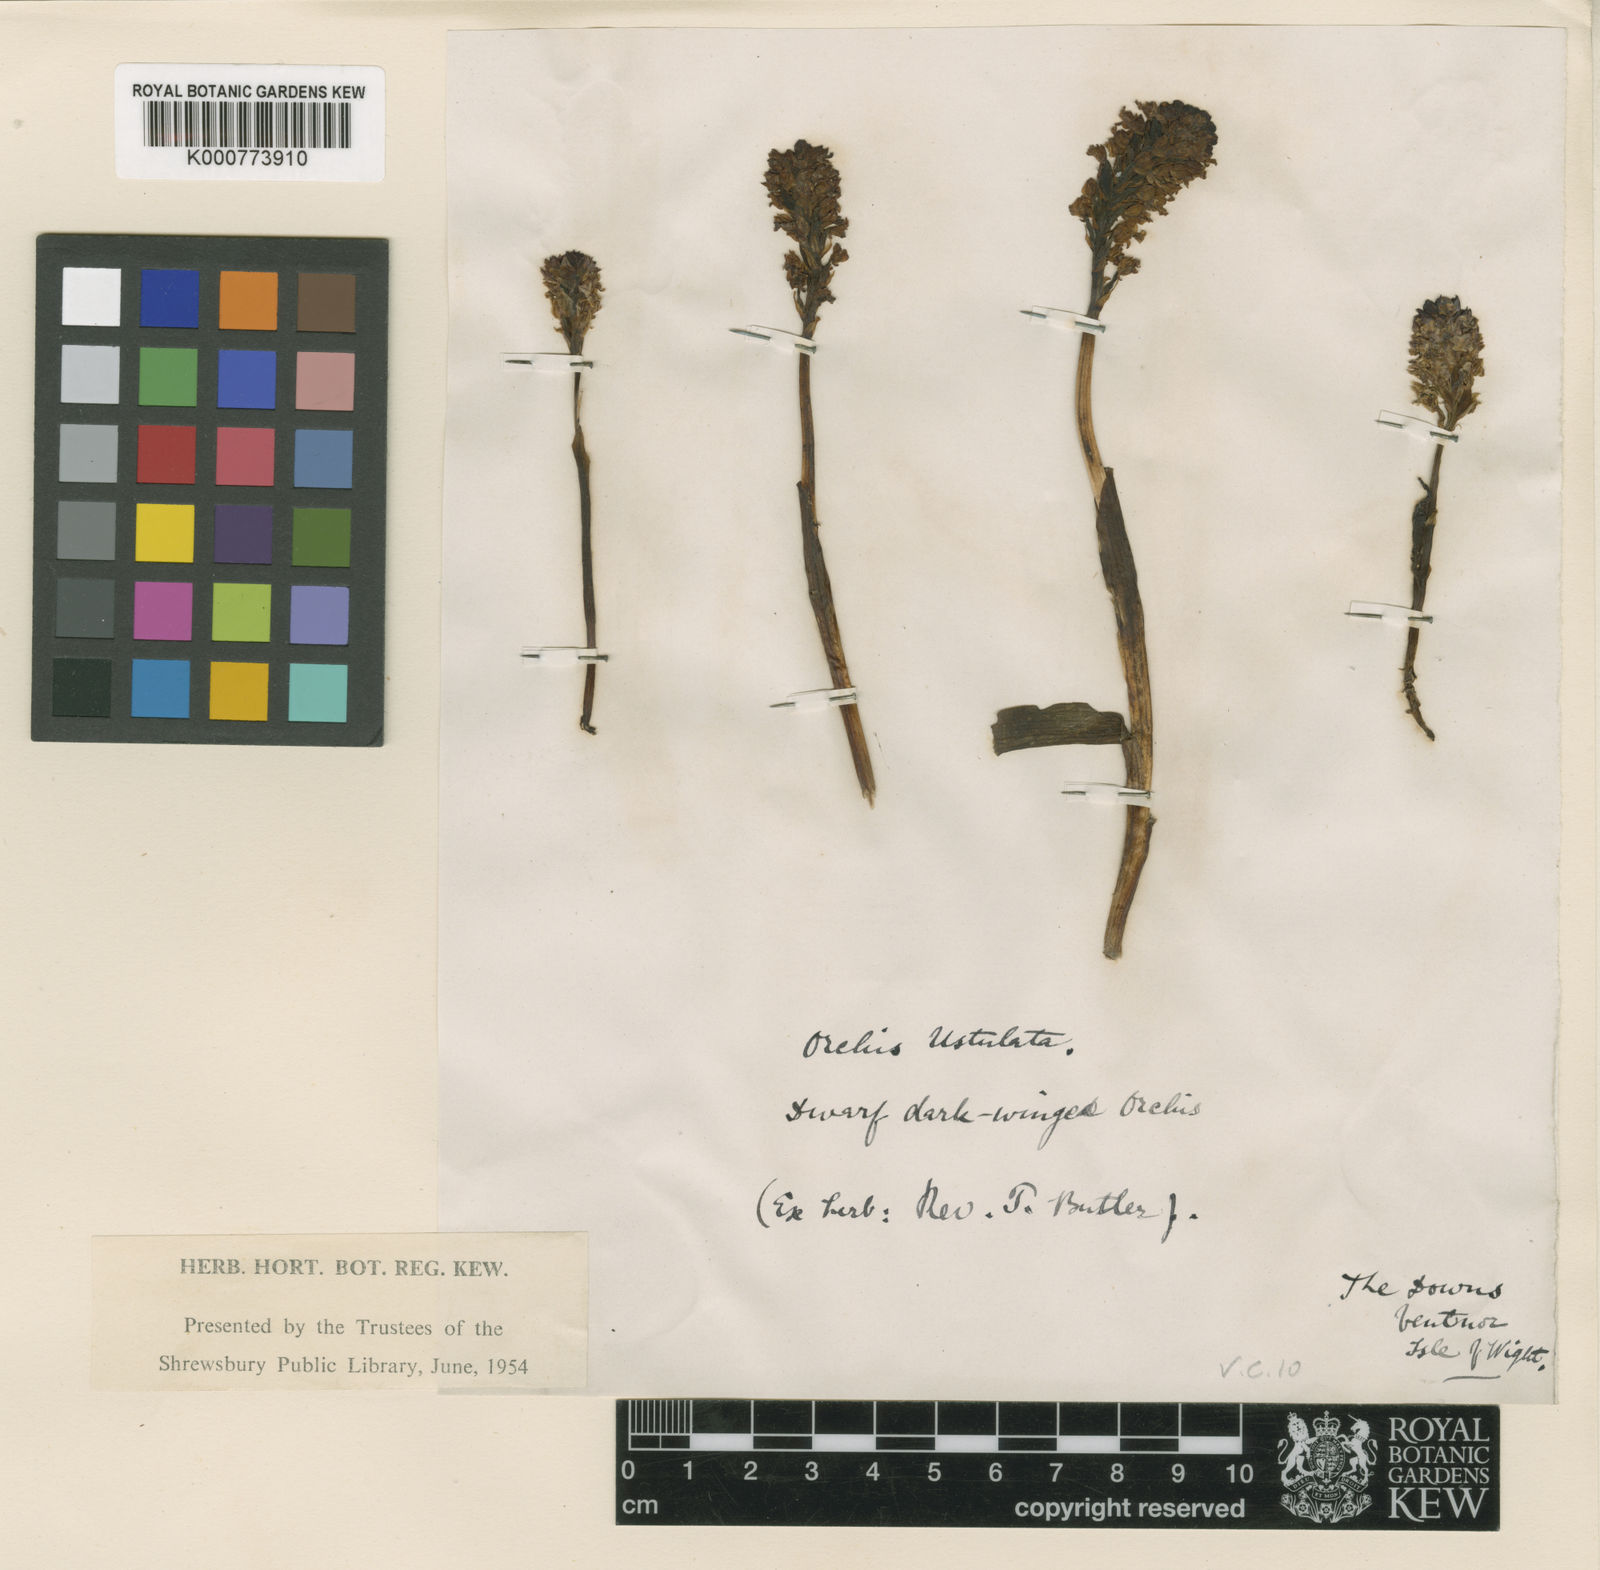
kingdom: Plantae
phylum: Tracheophyta
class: Liliopsida
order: Asparagales
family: Orchidaceae
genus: Neotinea
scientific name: Neotinea ustulata
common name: Burnt orchid
